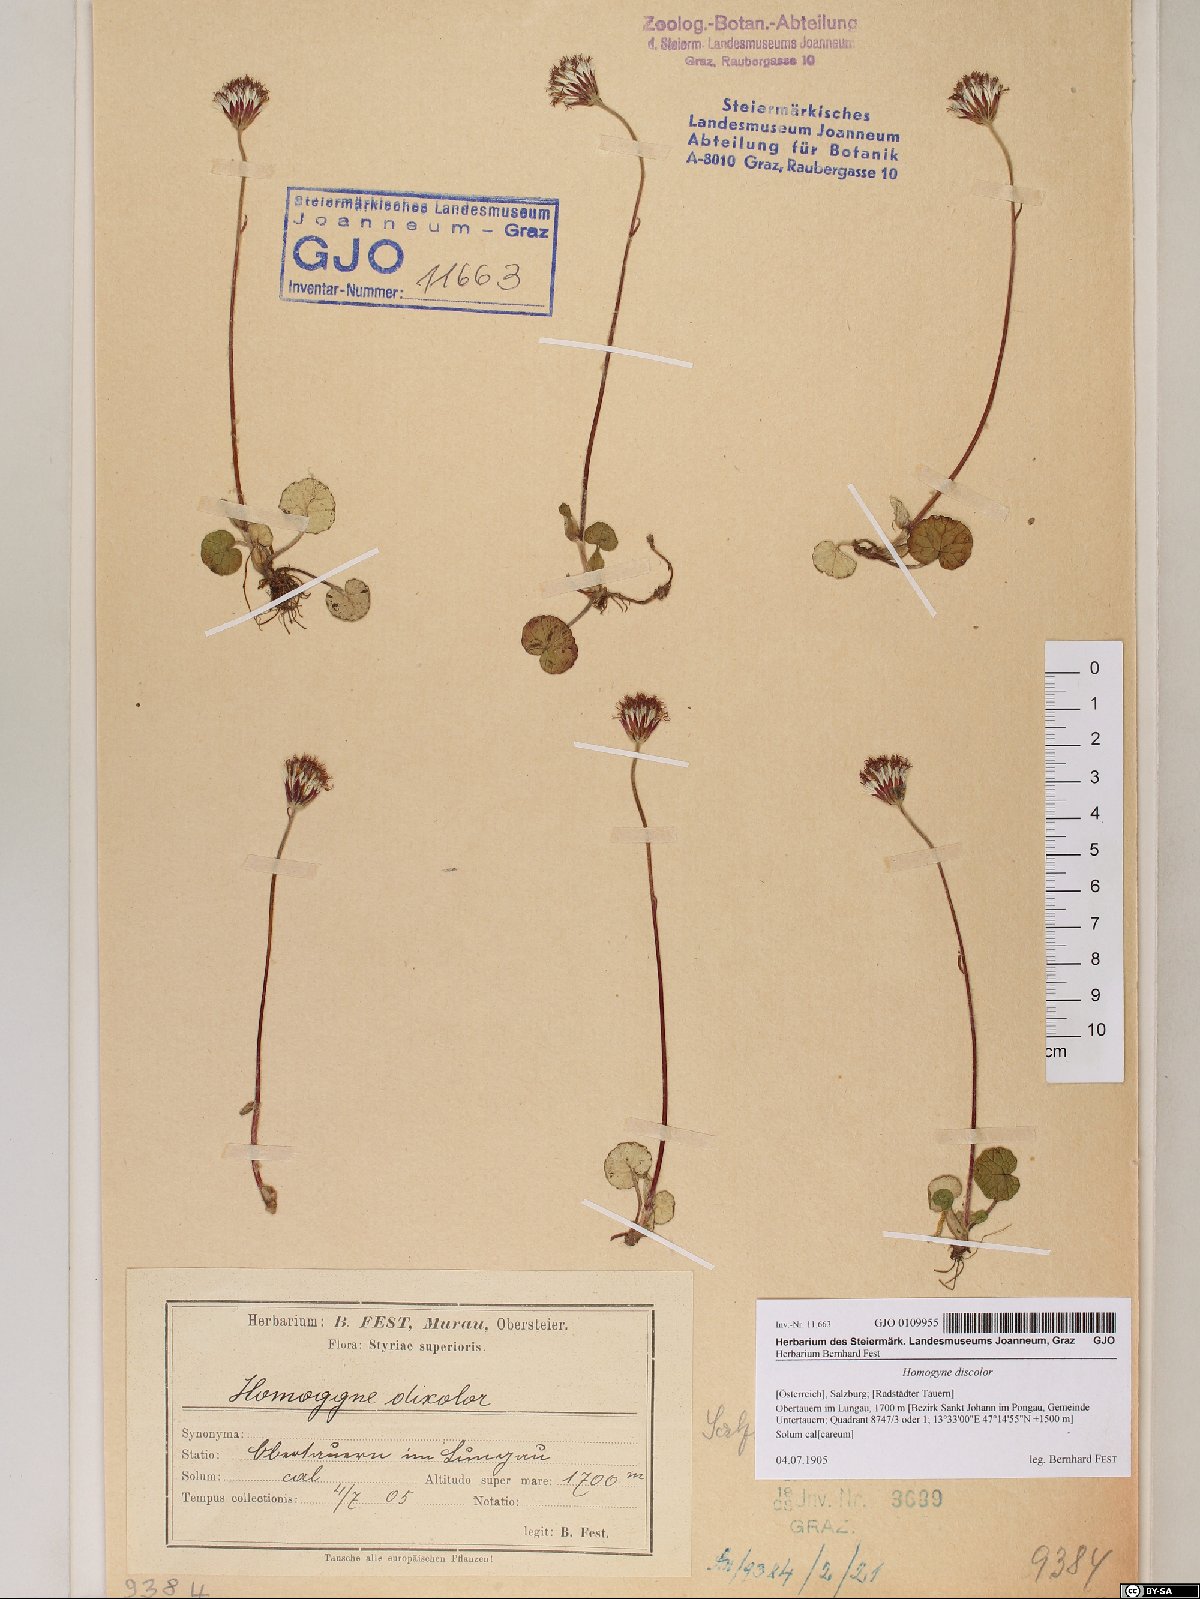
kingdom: Plantae
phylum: Tracheophyta
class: Magnoliopsida
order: Asterales
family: Asteraceae
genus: Homogyne
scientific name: Homogyne discolor
